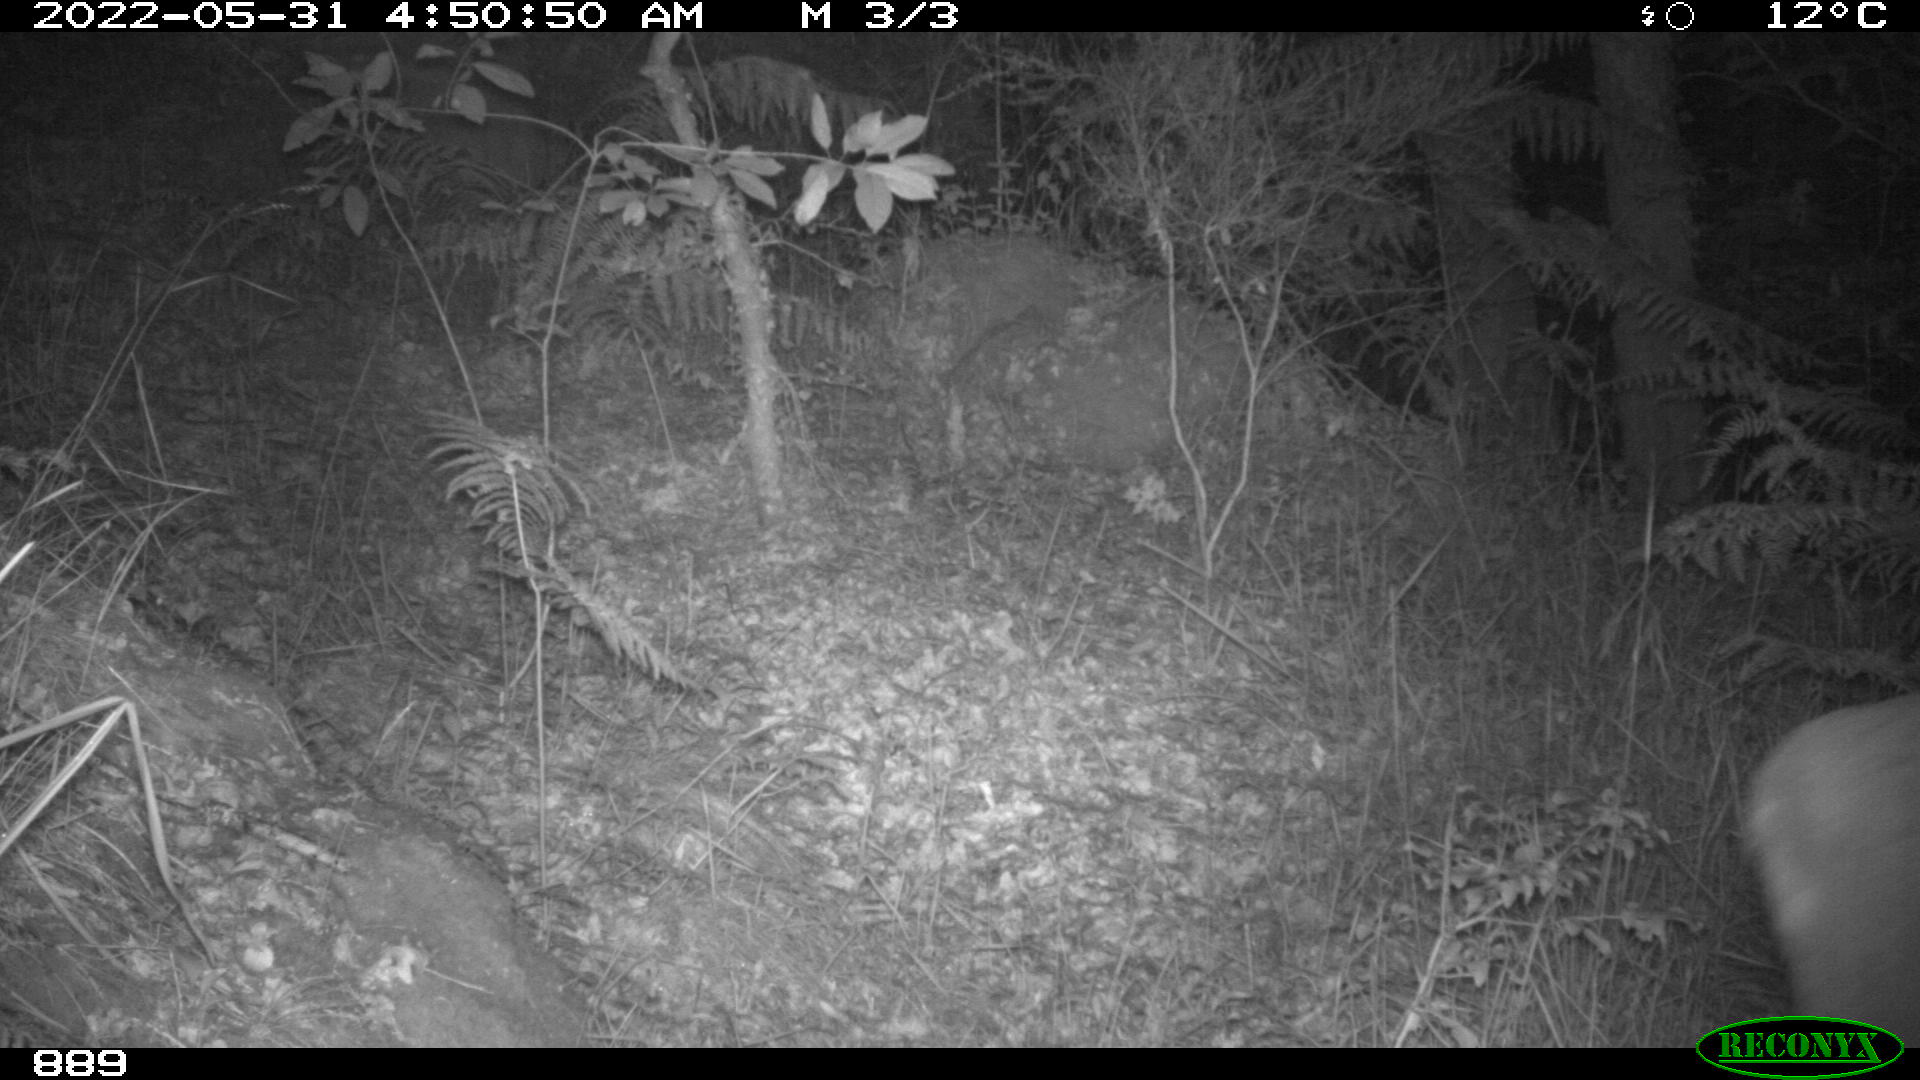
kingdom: Animalia
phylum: Chordata
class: Mammalia
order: Artiodactyla
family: Cervidae
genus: Capreolus
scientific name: Capreolus capreolus
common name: Western roe deer
